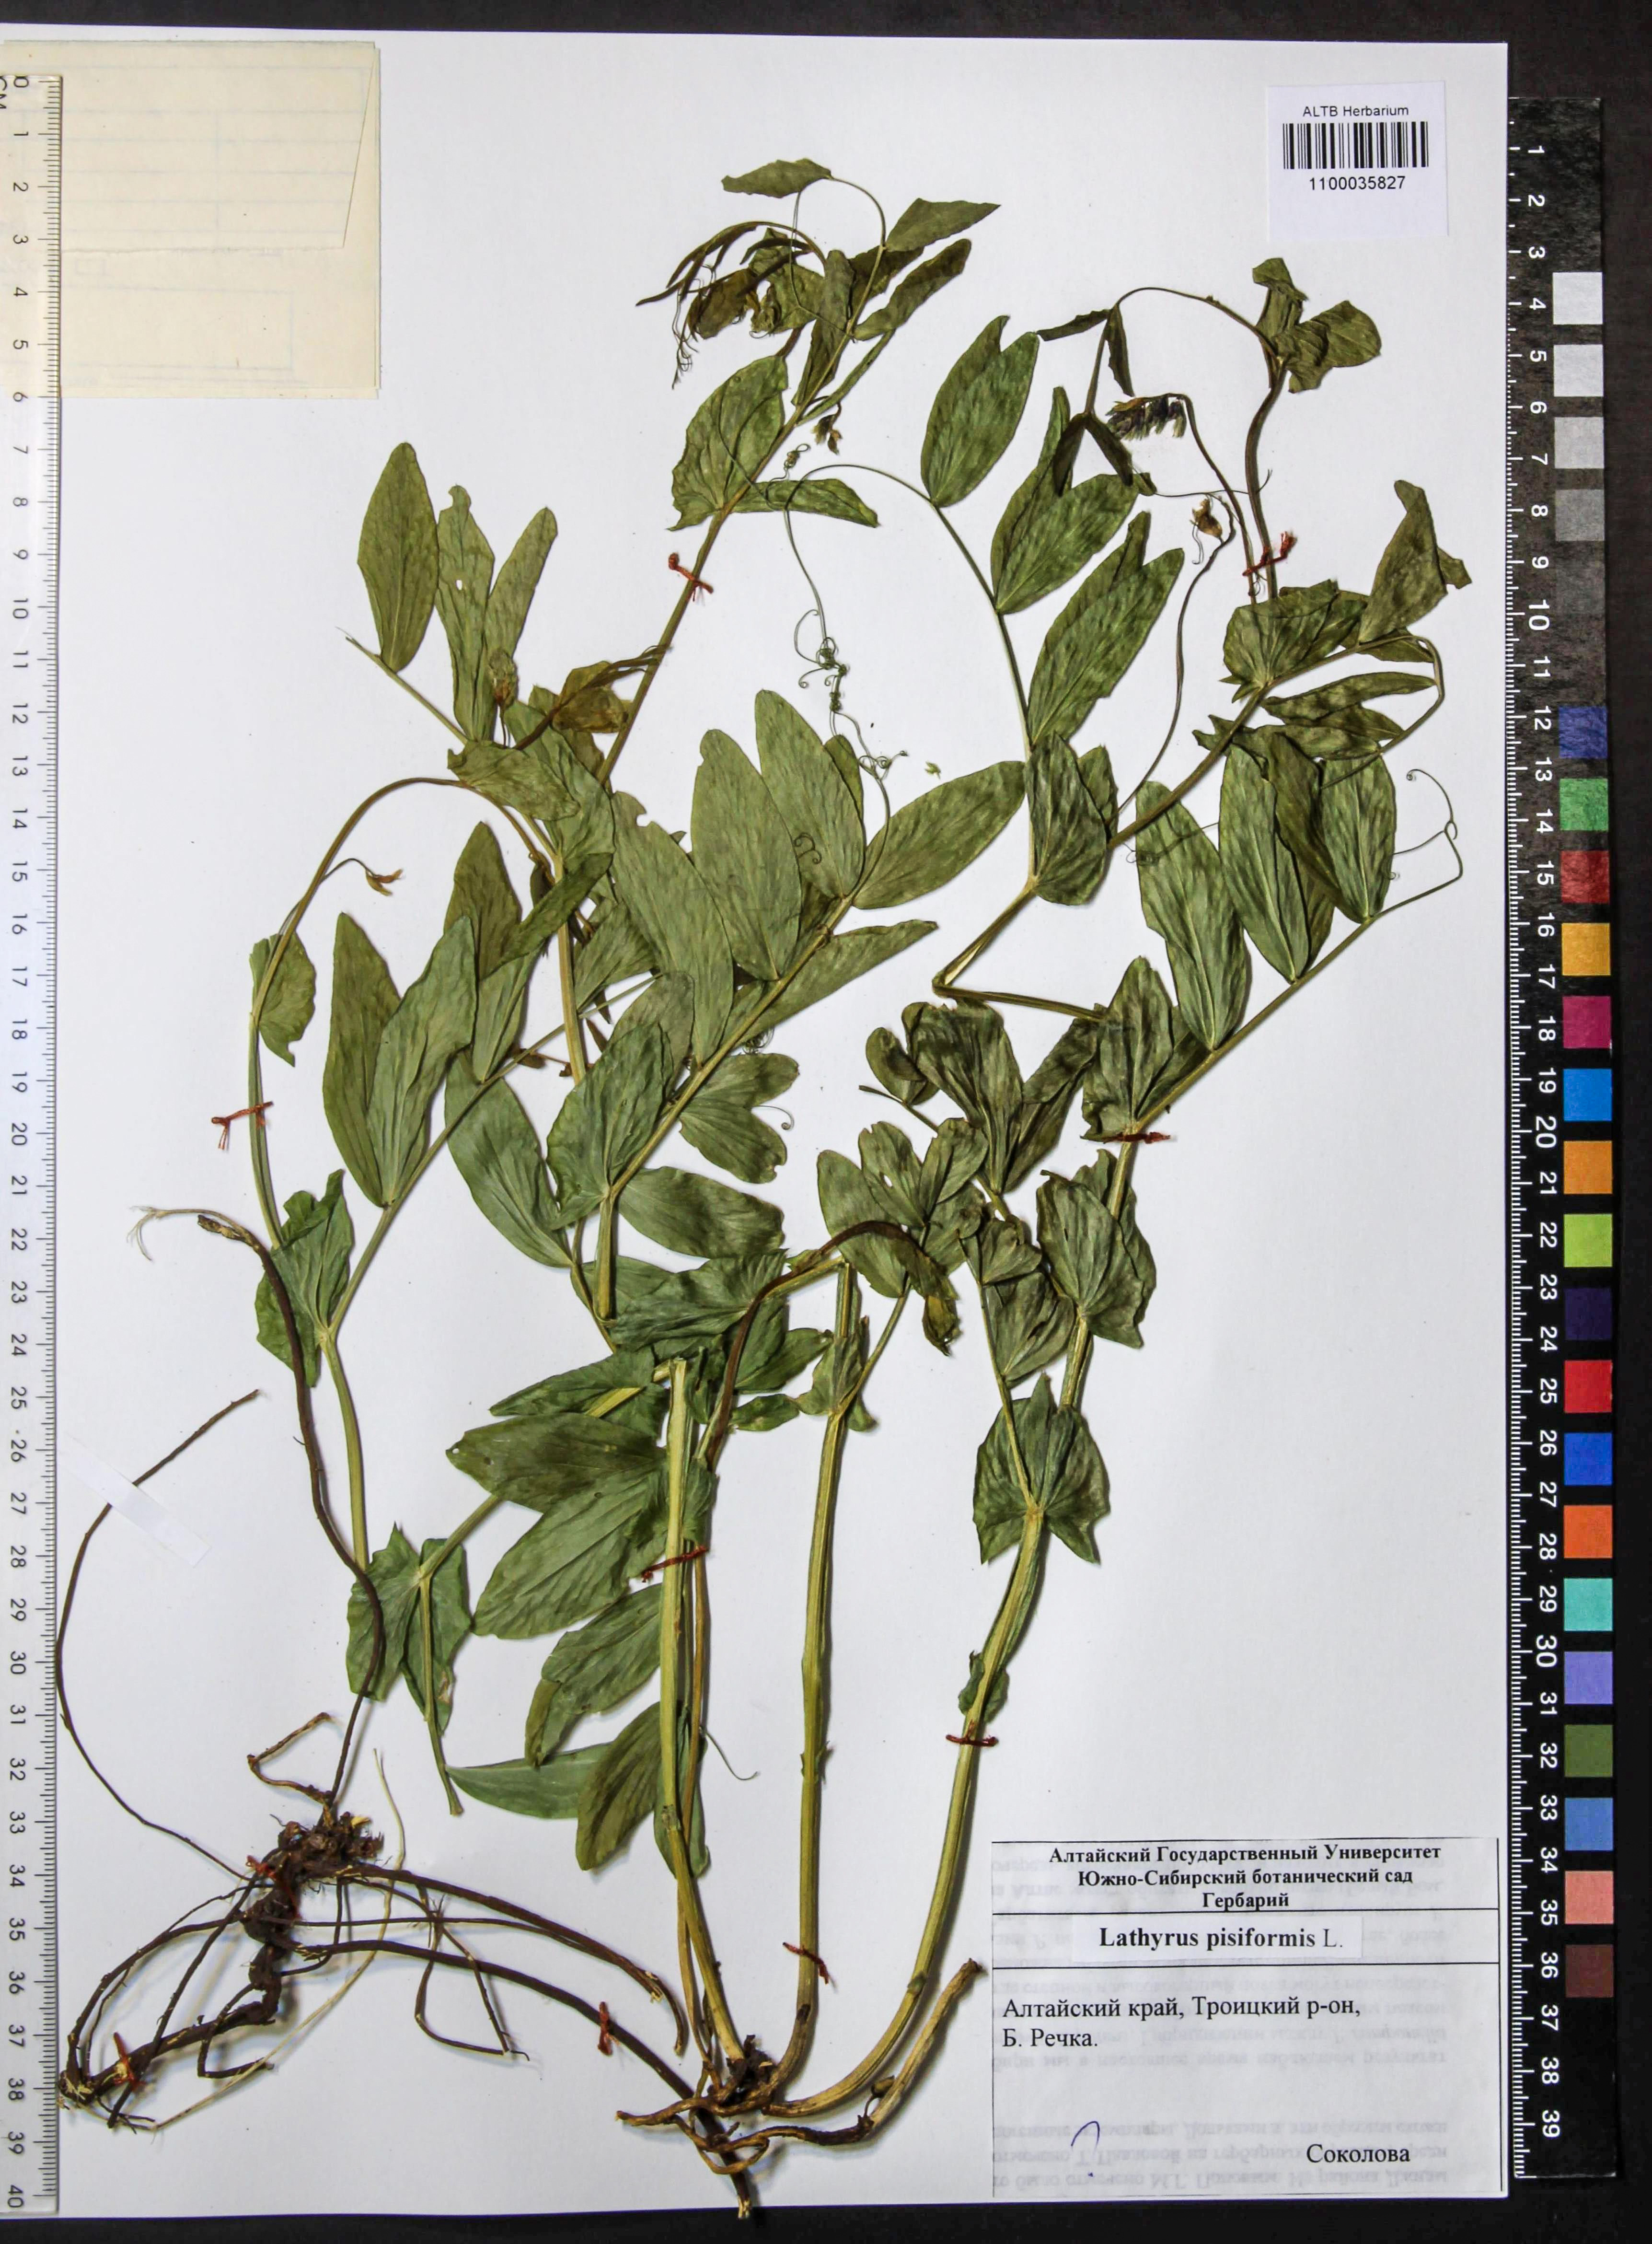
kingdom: Plantae
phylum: Tracheophyta
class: Magnoliopsida
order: Fabales
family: Fabaceae
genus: Lathyrus
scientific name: Lathyrus pisiformis
